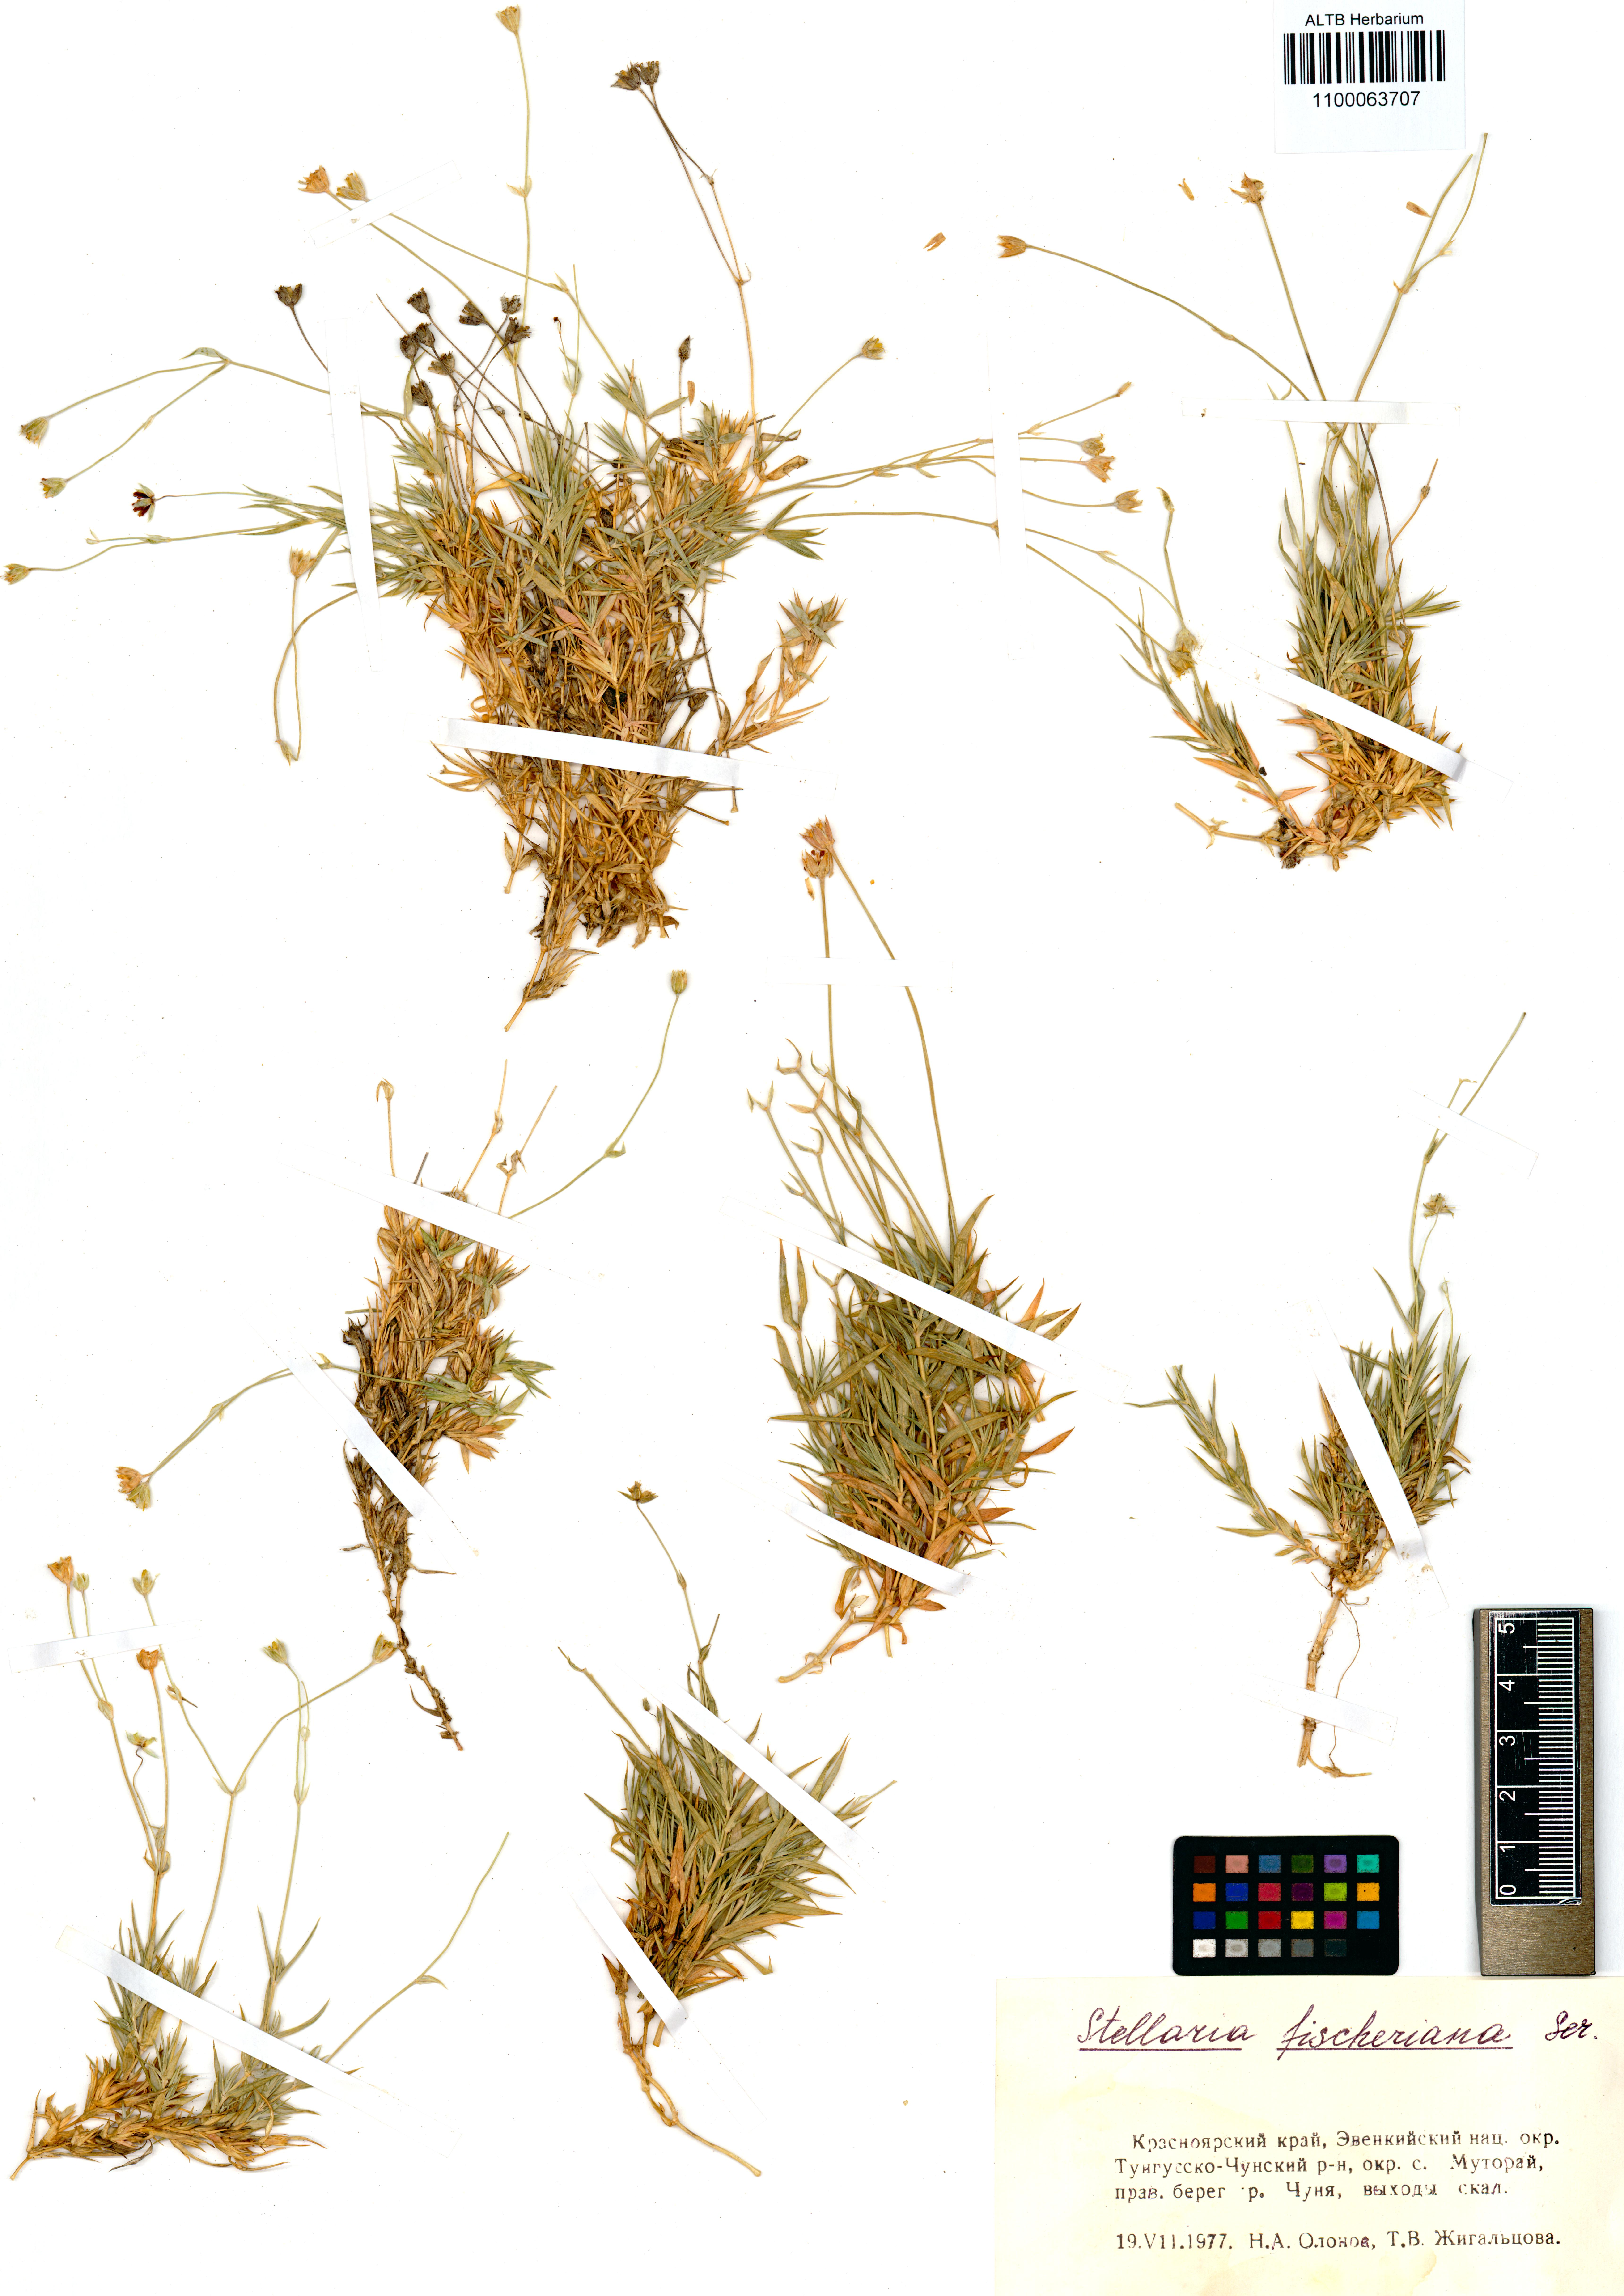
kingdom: Plantae
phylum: Tracheophyta
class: Magnoliopsida
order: Caryophyllales
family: Caryophyllaceae
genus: Stellaria
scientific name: Stellaria fischeriana
